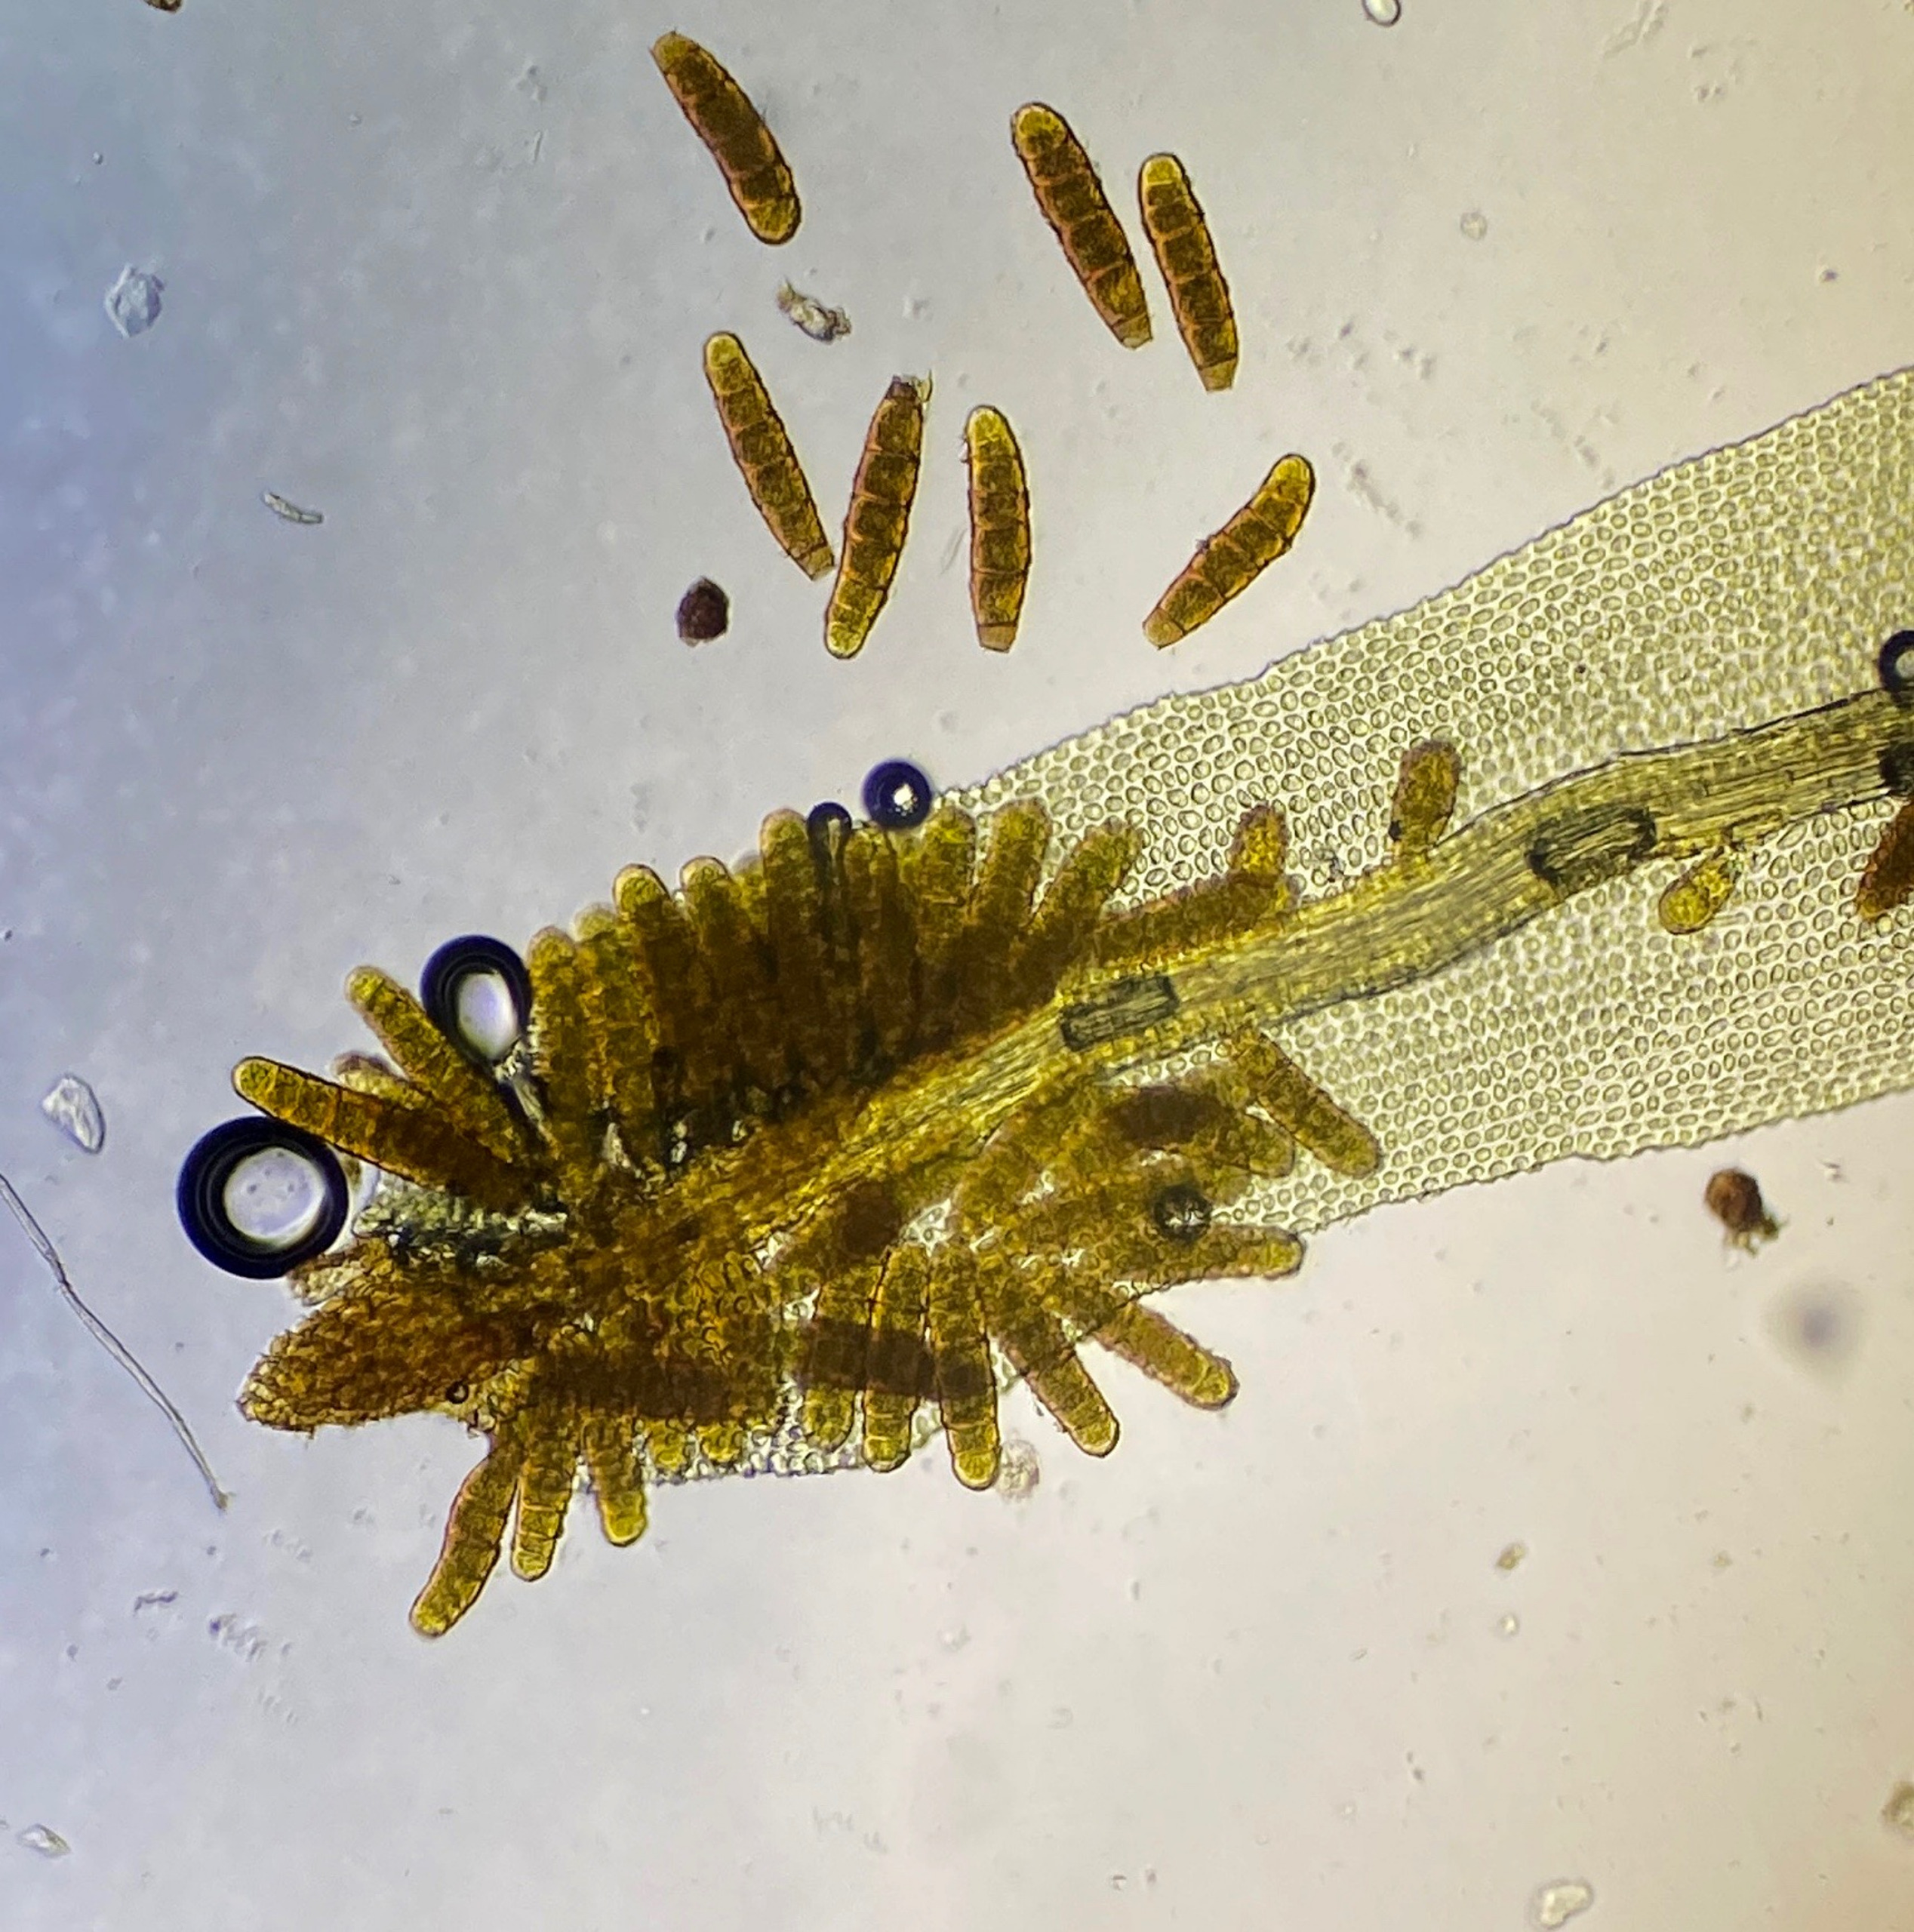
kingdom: Plantae
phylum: Bryophyta
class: Bryopsida
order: Orthotrichales
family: Orthotrichaceae
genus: Plenogemma
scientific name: Plenogemma phyllantha
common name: Stor låddenhætte
